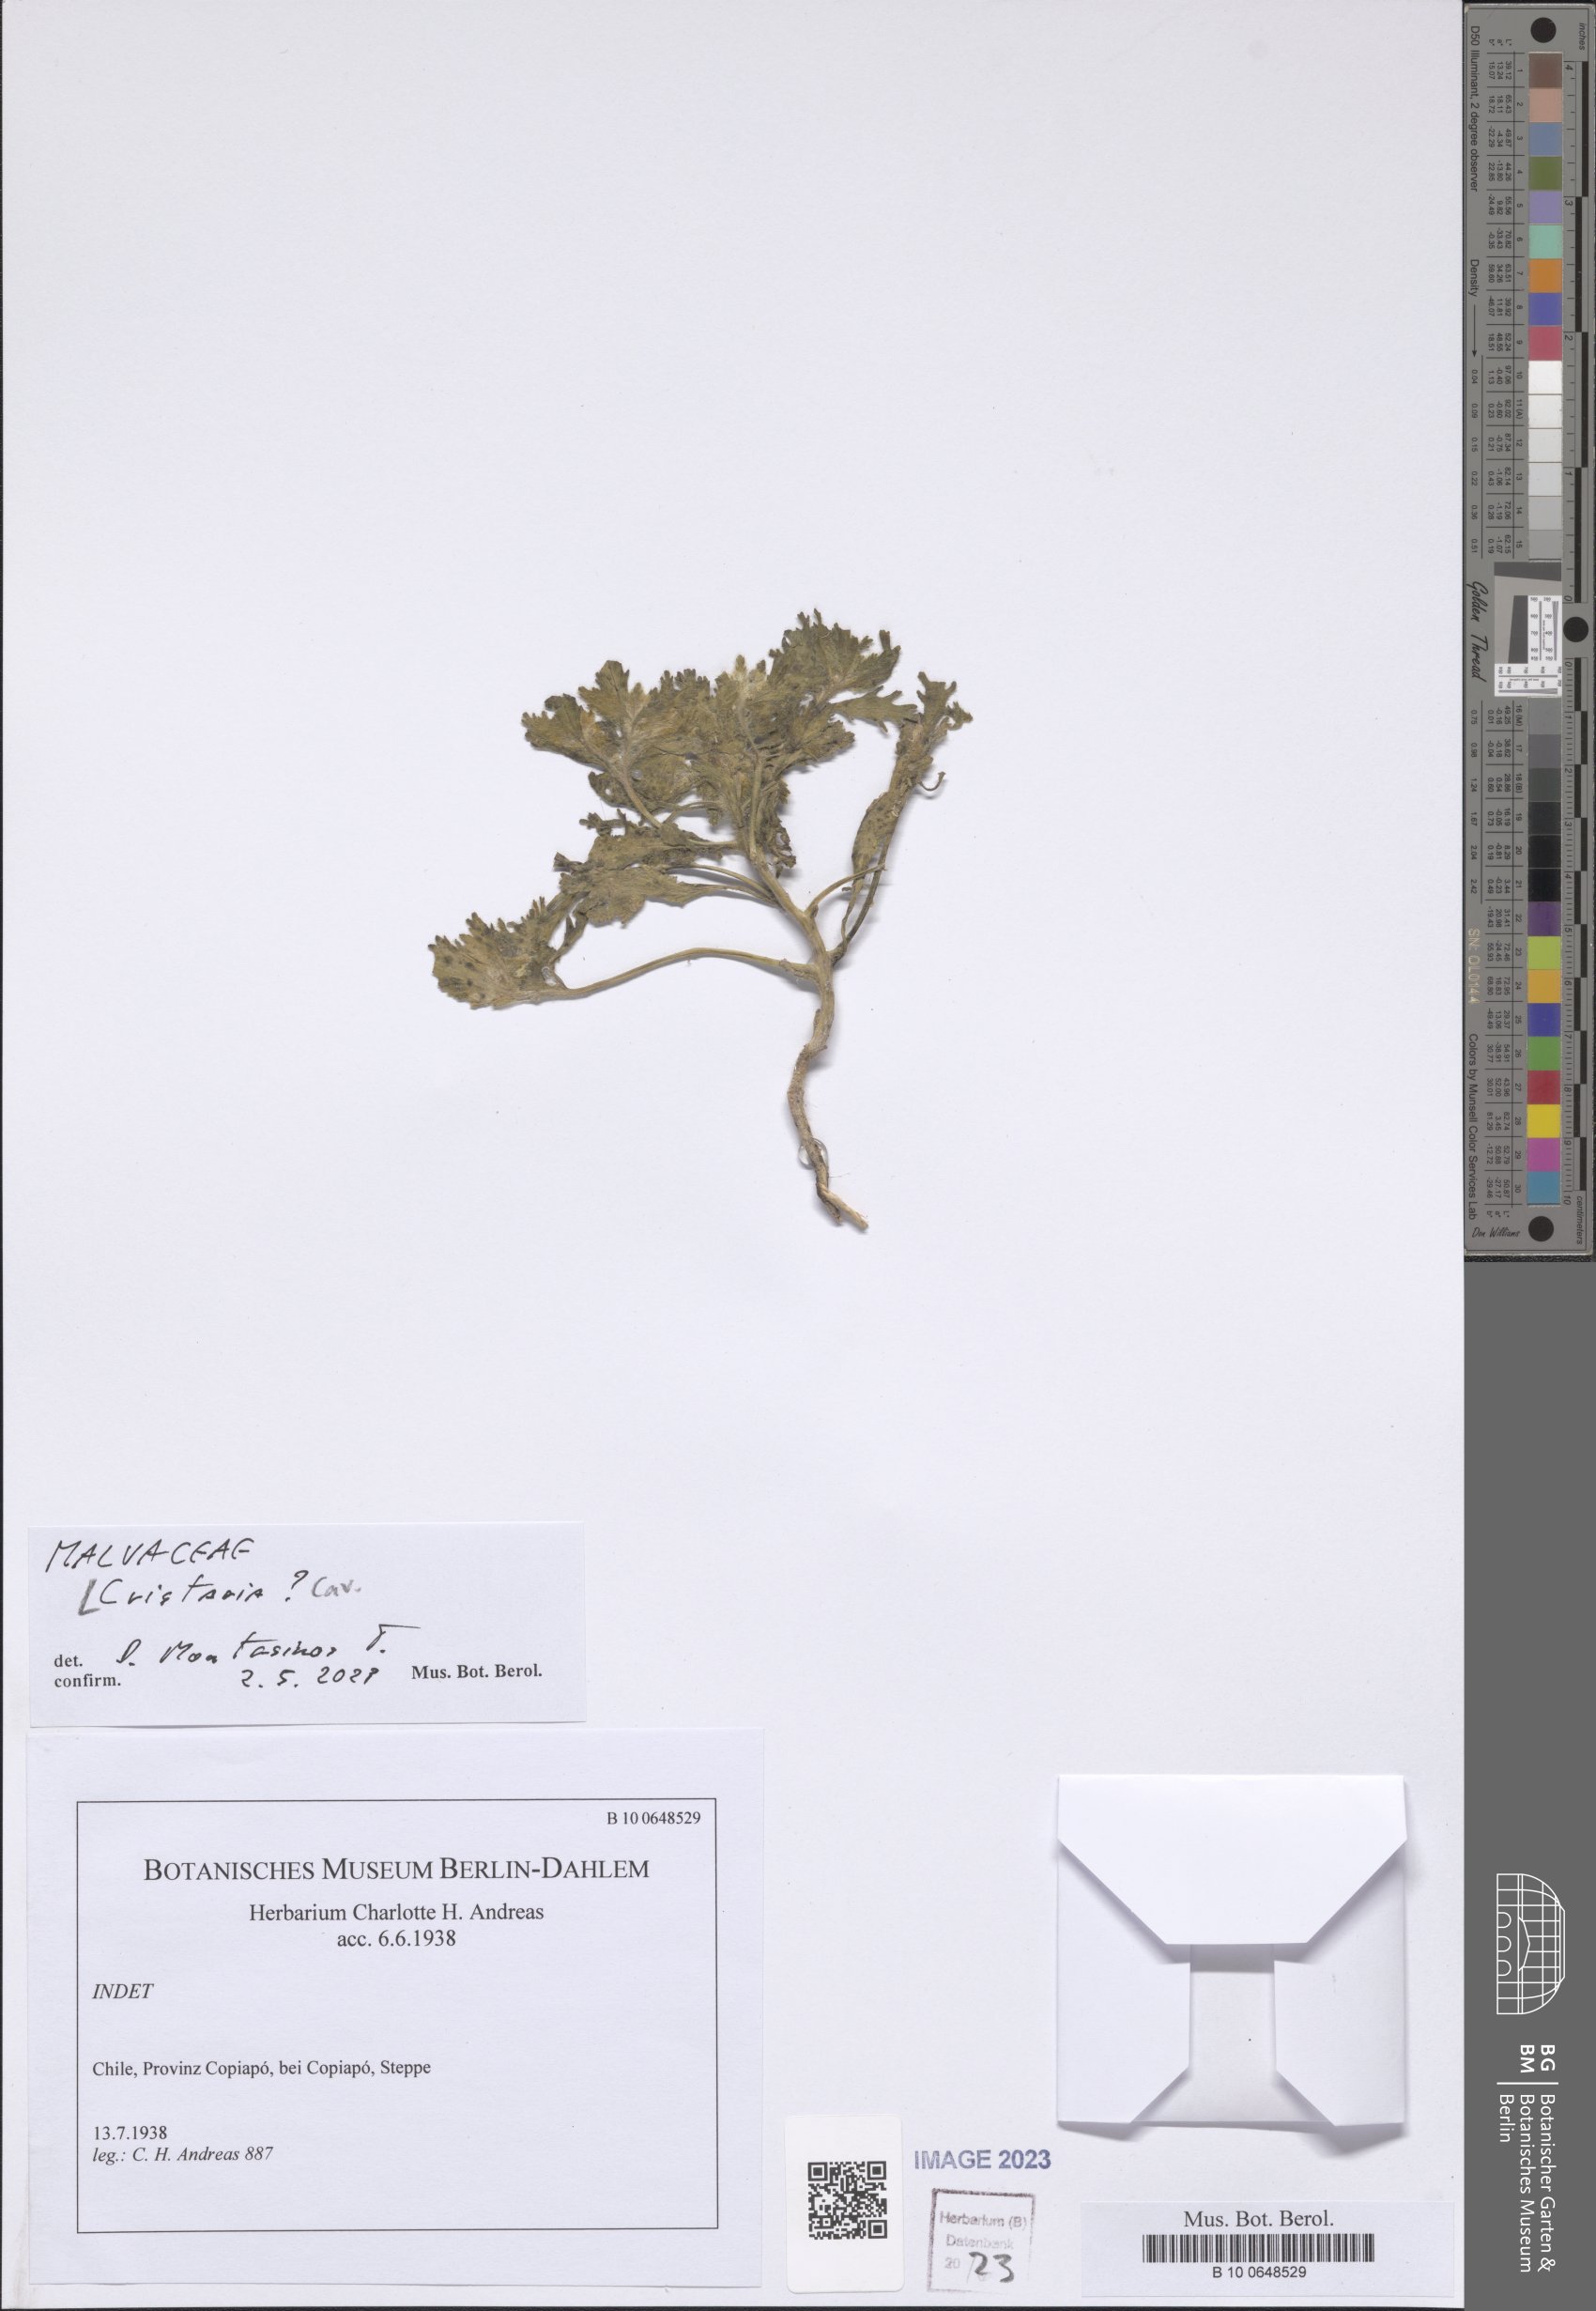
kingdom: Plantae
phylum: Tracheophyta
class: Magnoliopsida
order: Malvales
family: Malvaceae
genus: Cristaria
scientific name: Cristaria
